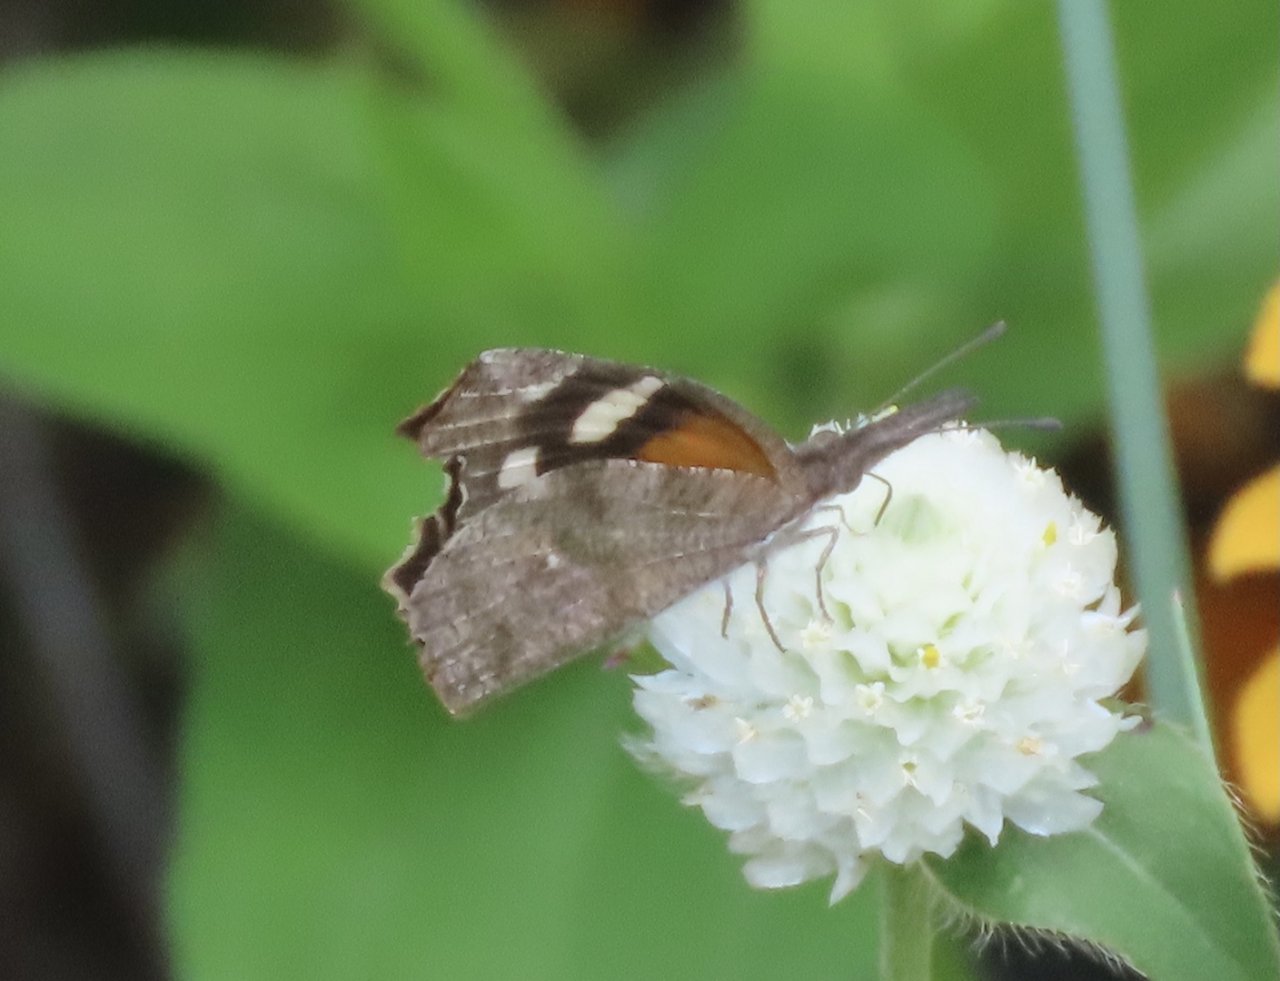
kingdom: Animalia
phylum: Arthropoda
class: Insecta
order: Lepidoptera
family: Nymphalidae
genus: Libytheana
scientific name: Libytheana carinenta
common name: American Snout
